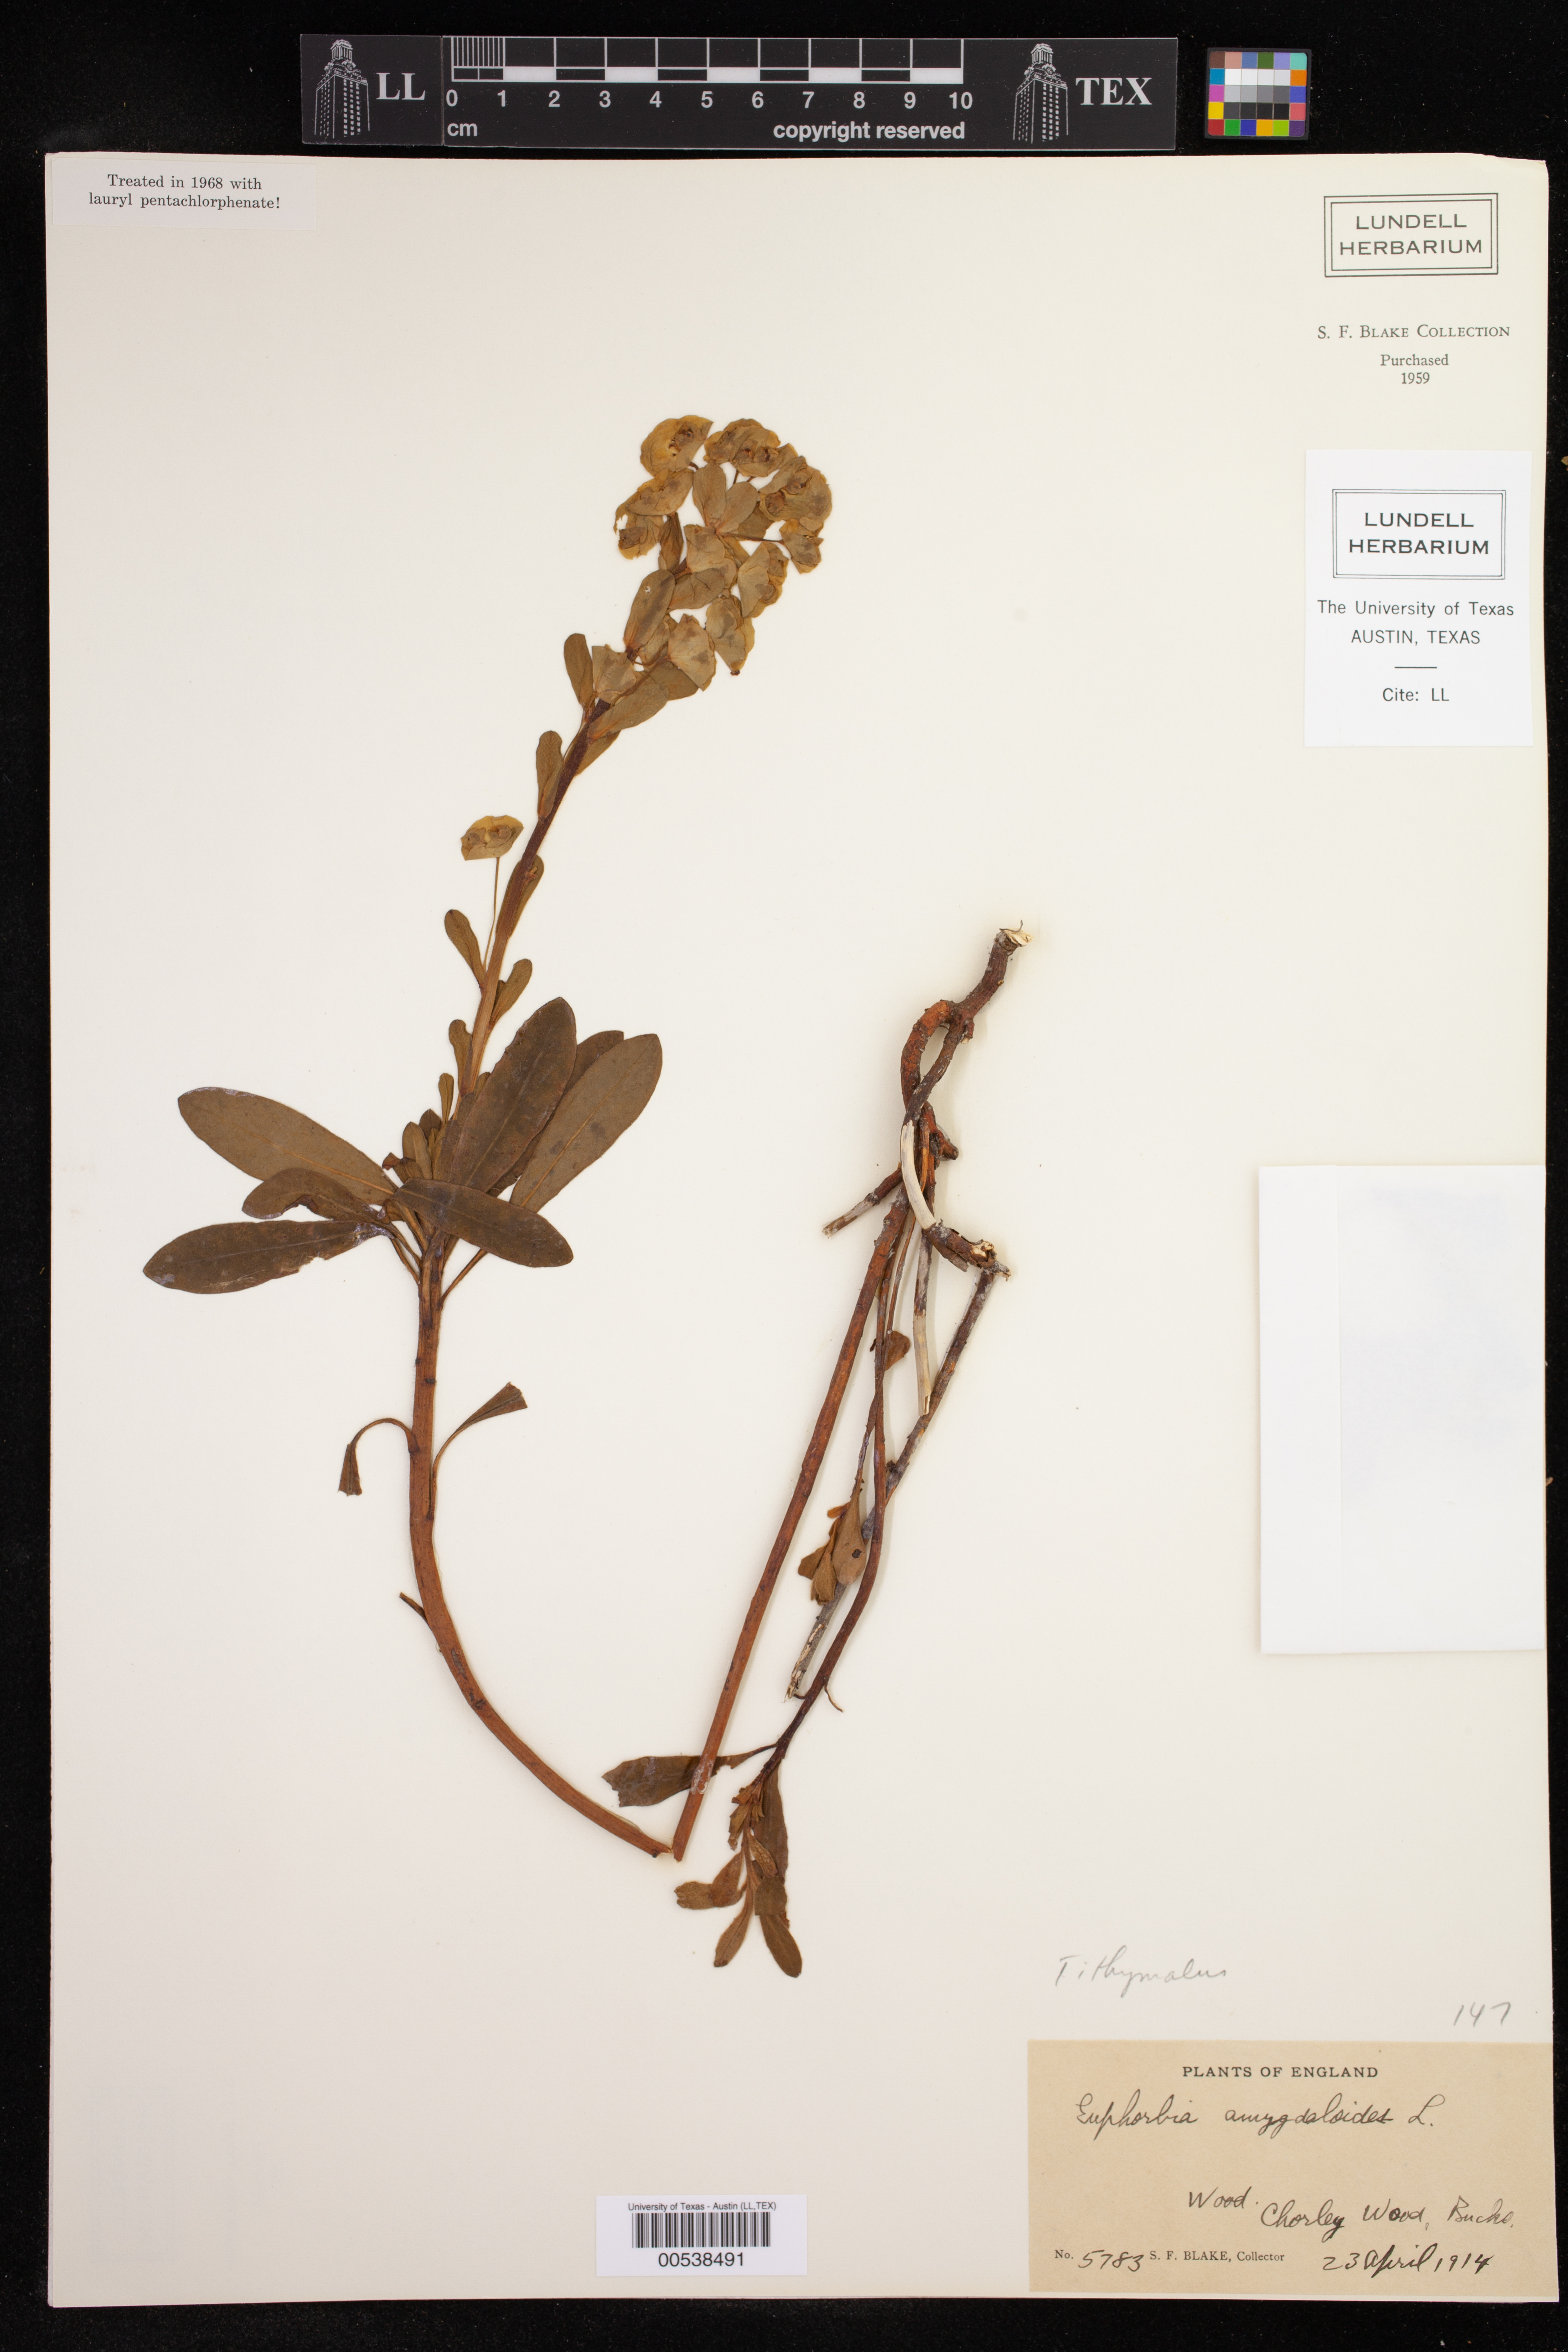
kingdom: Plantae
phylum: Tracheophyta
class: Magnoliopsida
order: Malpighiales
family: Euphorbiaceae
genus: Euphorbia
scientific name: Euphorbia amygdaloides
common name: Wood spurge
